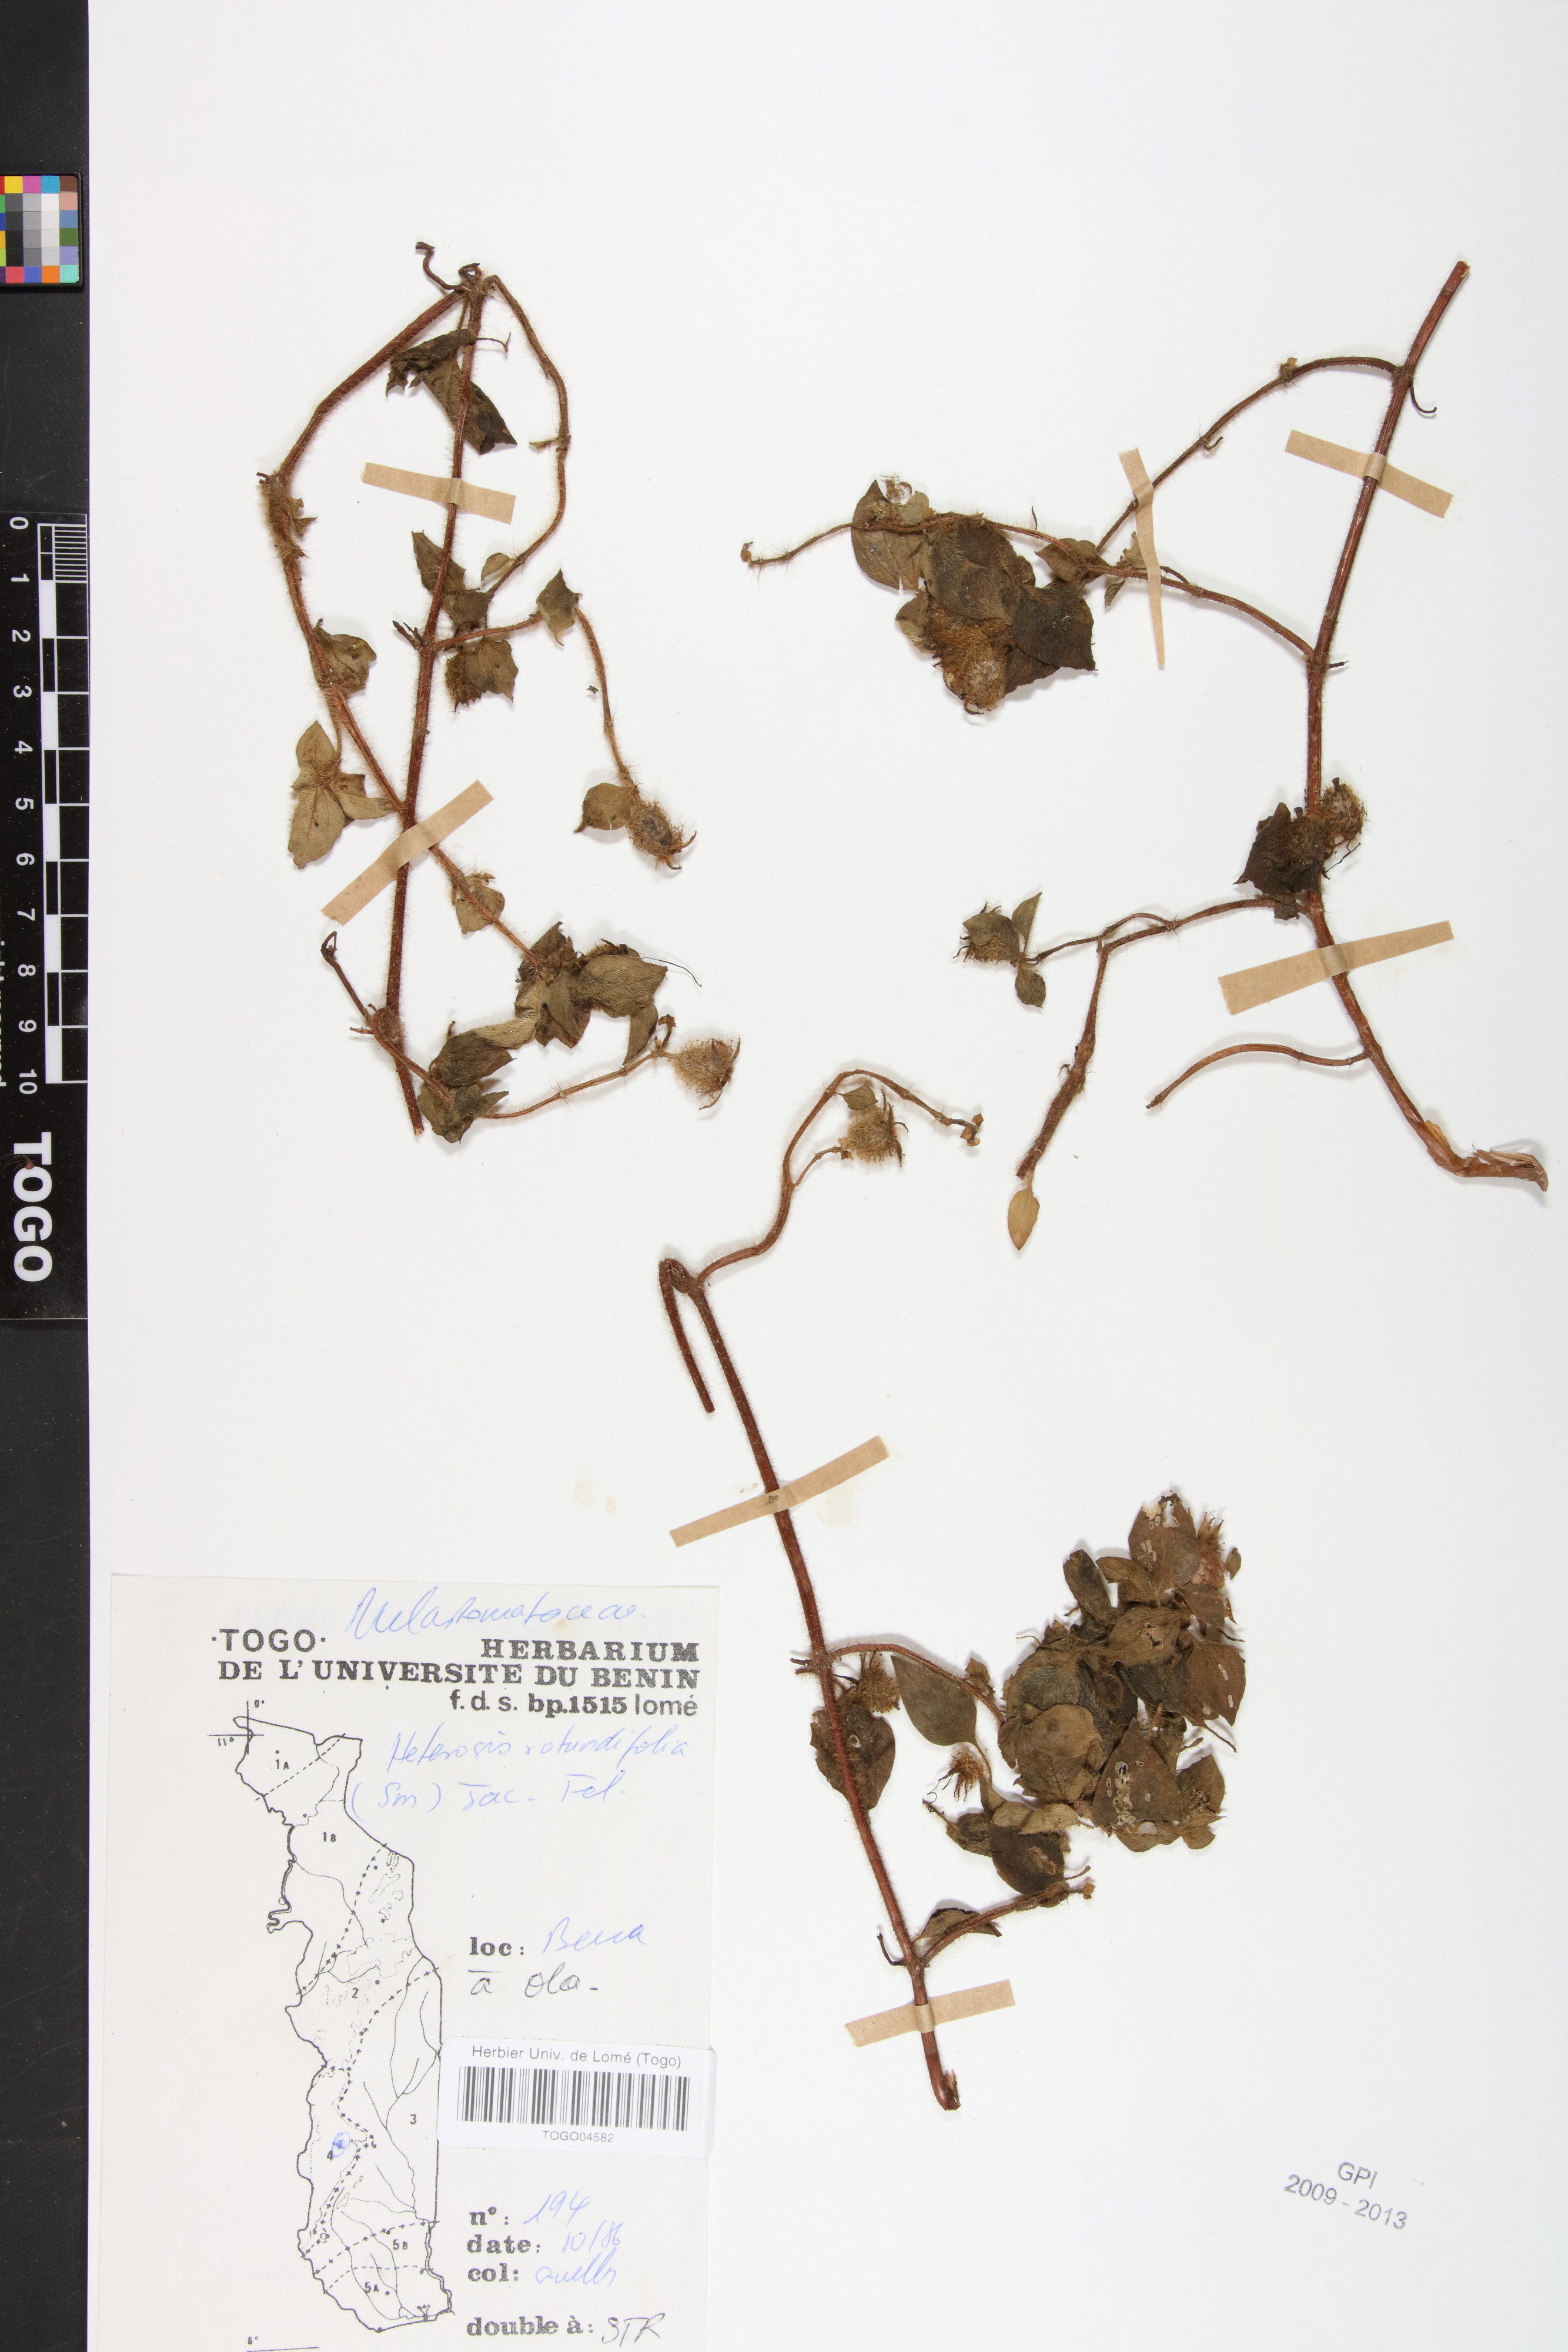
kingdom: Plantae
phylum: Tracheophyta
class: Magnoliopsida
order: Myrtales
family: Melastomataceae
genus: Heterotis
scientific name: Heterotis rotundifolia
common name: Pinklady
